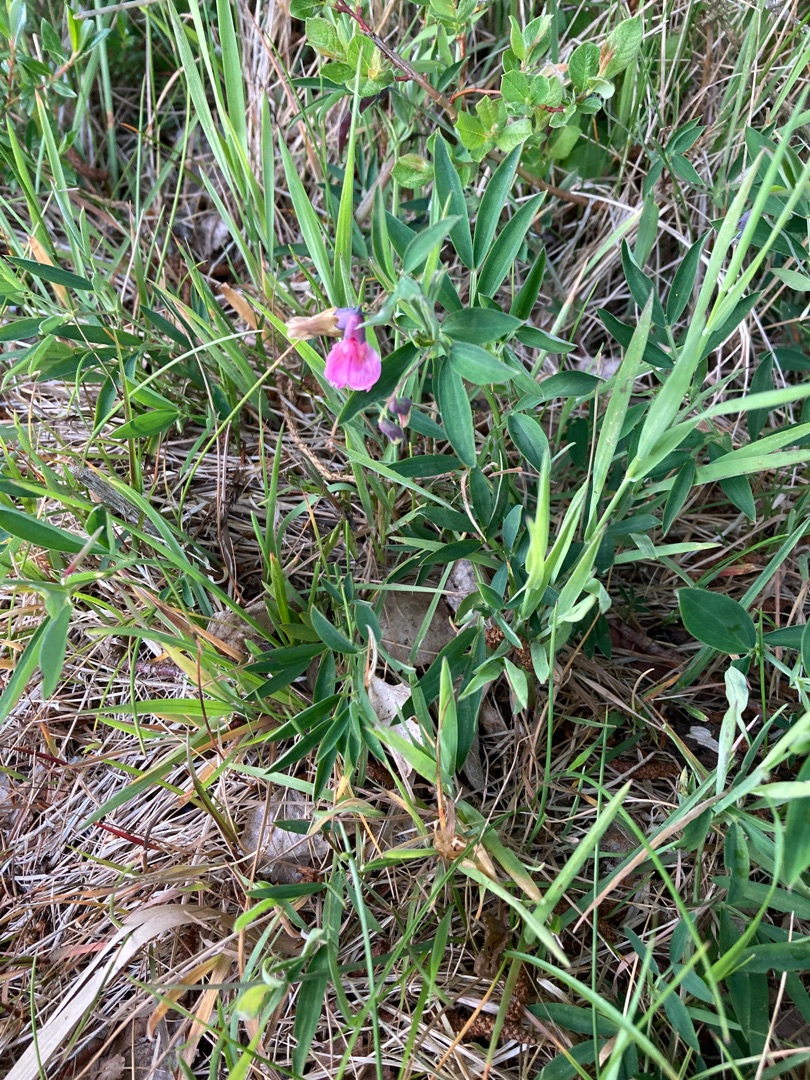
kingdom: Plantae
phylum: Tracheophyta
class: Magnoliopsida
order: Fabales
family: Fabaceae
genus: Lathyrus
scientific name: Lathyrus linifolius
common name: Krat-fladbælg
